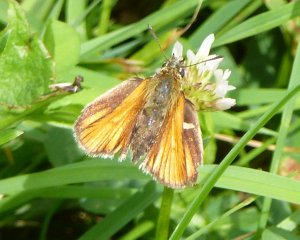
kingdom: Animalia
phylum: Arthropoda
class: Insecta
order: Lepidoptera
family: Hesperiidae
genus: Thymelicus
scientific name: Thymelicus lineola
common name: European Skipper
